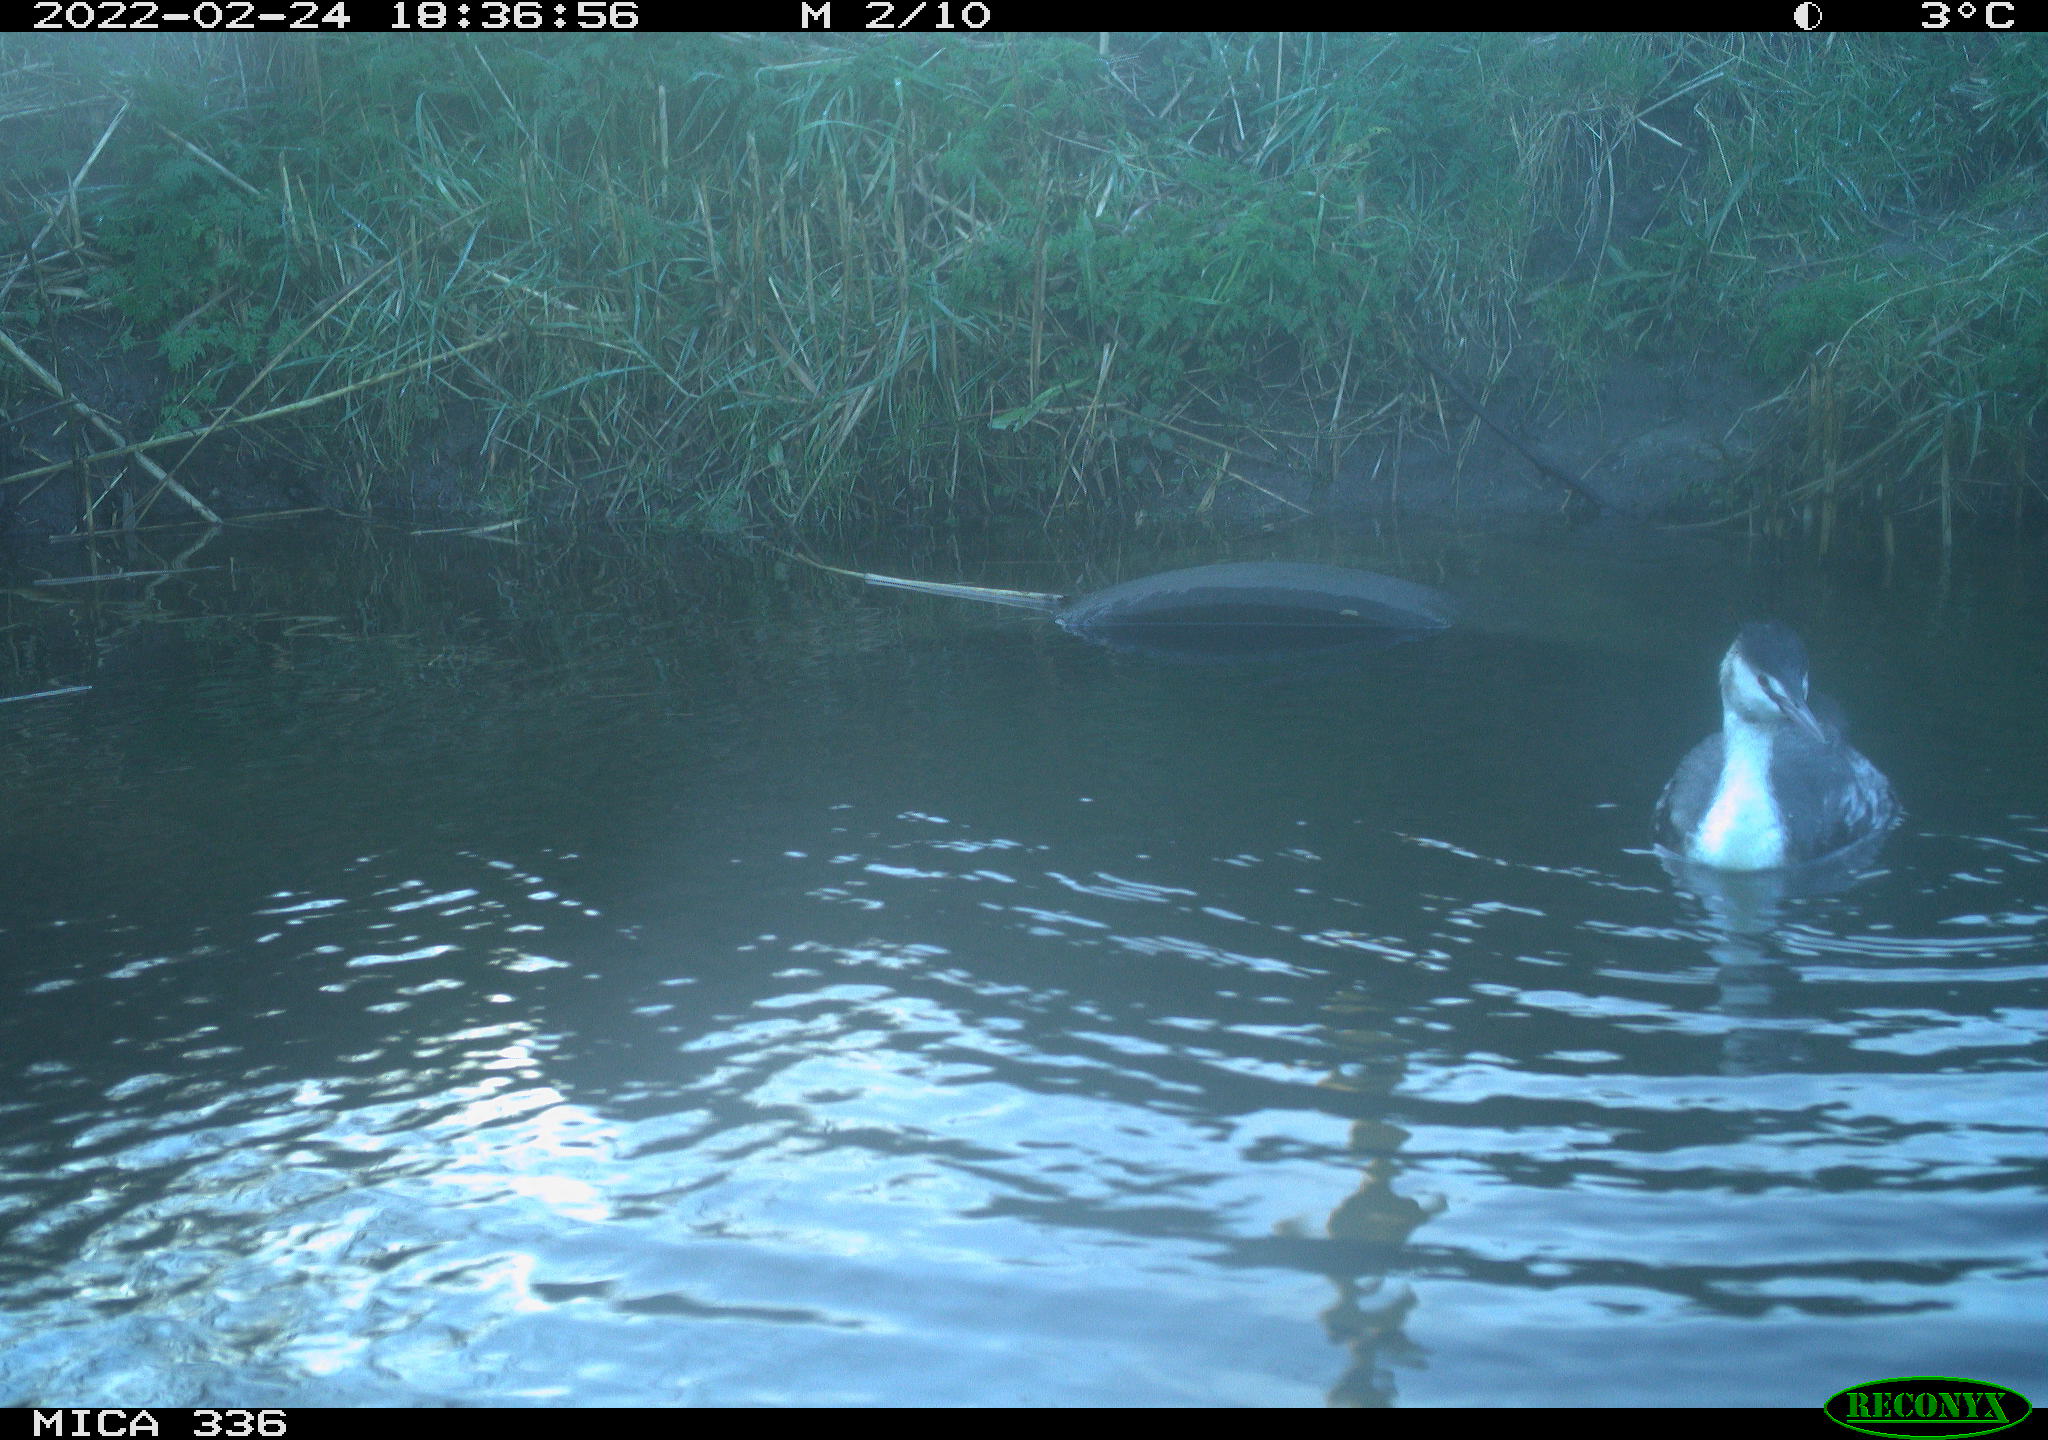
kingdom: Animalia
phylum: Chordata
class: Aves
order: Podicipediformes
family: Podicipedidae
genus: Podiceps
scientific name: Podiceps cristatus
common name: Great crested grebe
